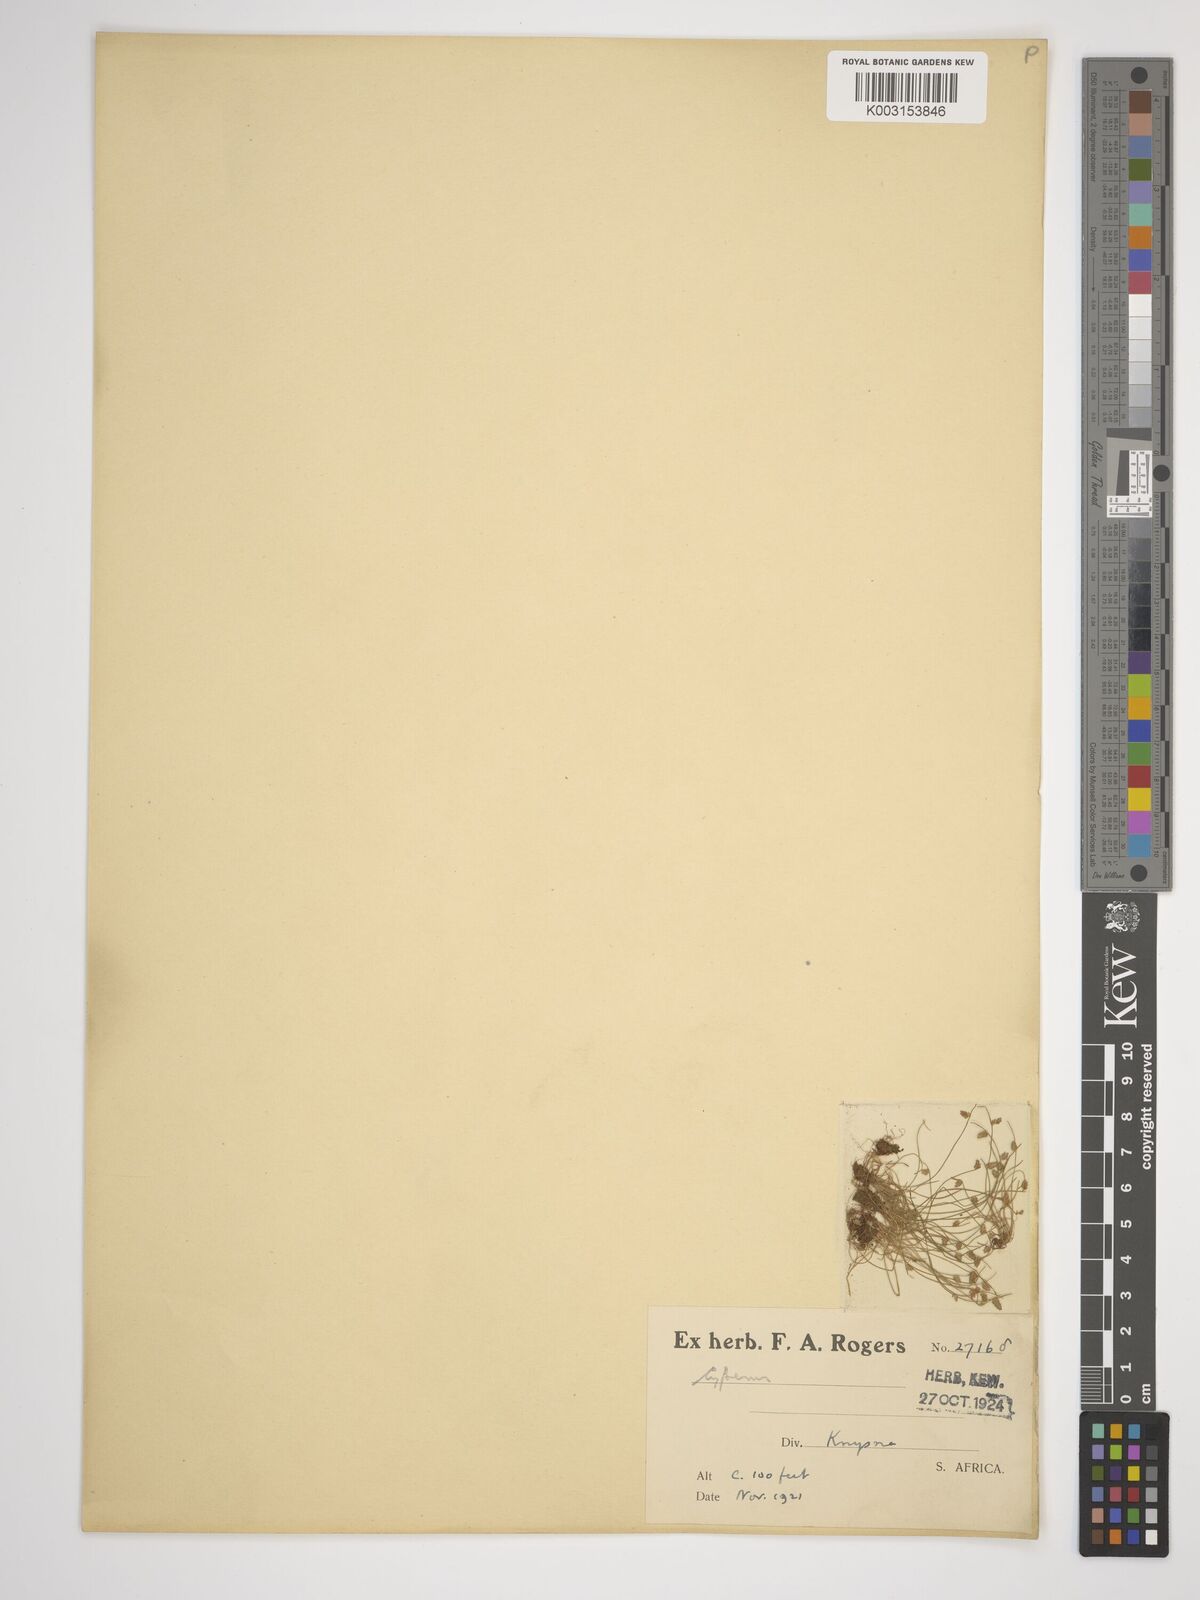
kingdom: Plantae
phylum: Tracheophyta
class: Liliopsida
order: Poales
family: Cyperaceae
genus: Cyperus
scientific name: Cyperus
